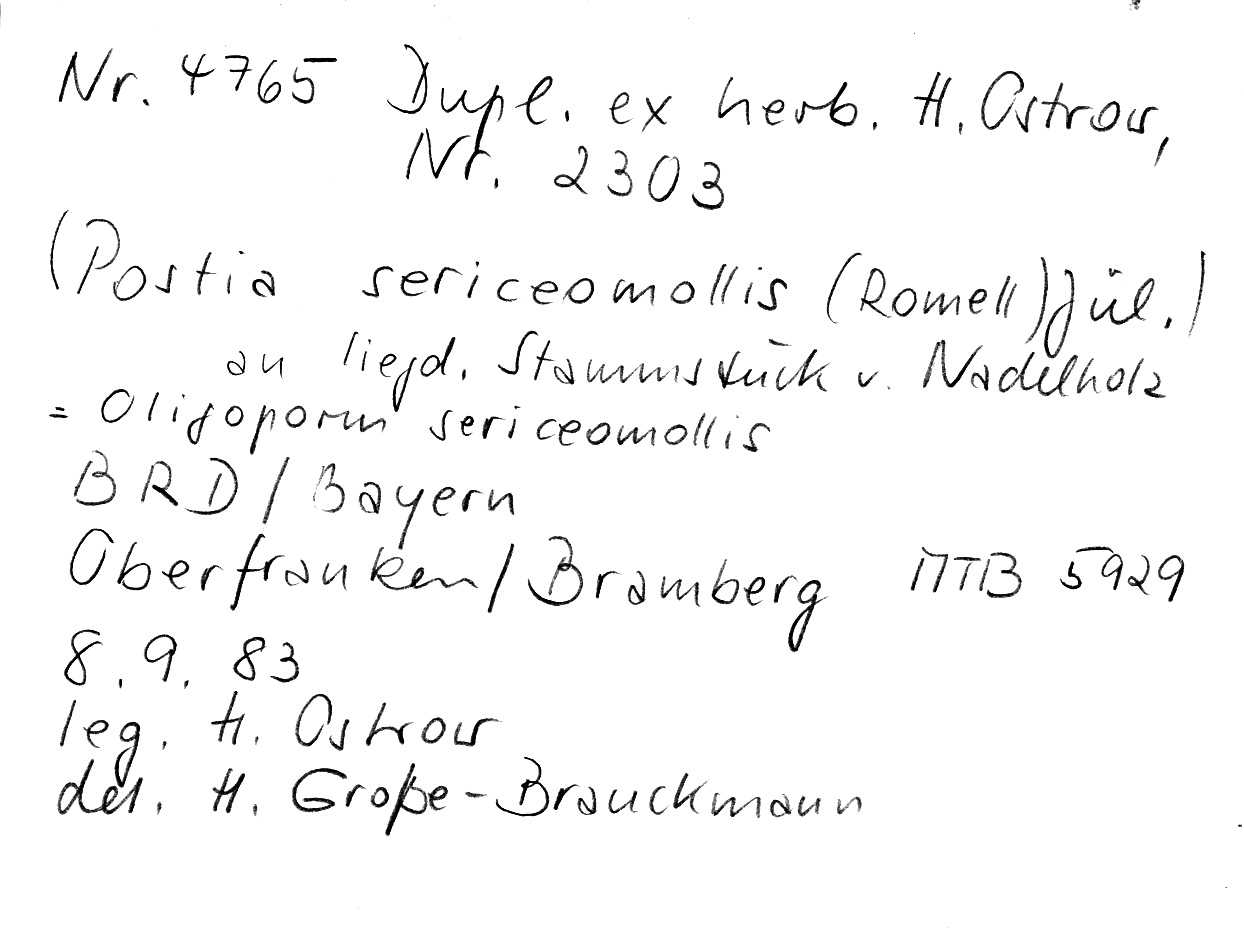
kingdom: Fungi
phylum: Basidiomycota
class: Agaricomycetes
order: Polyporales
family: Dacryobolaceae
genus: Postia
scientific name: Postia sericeomollis
